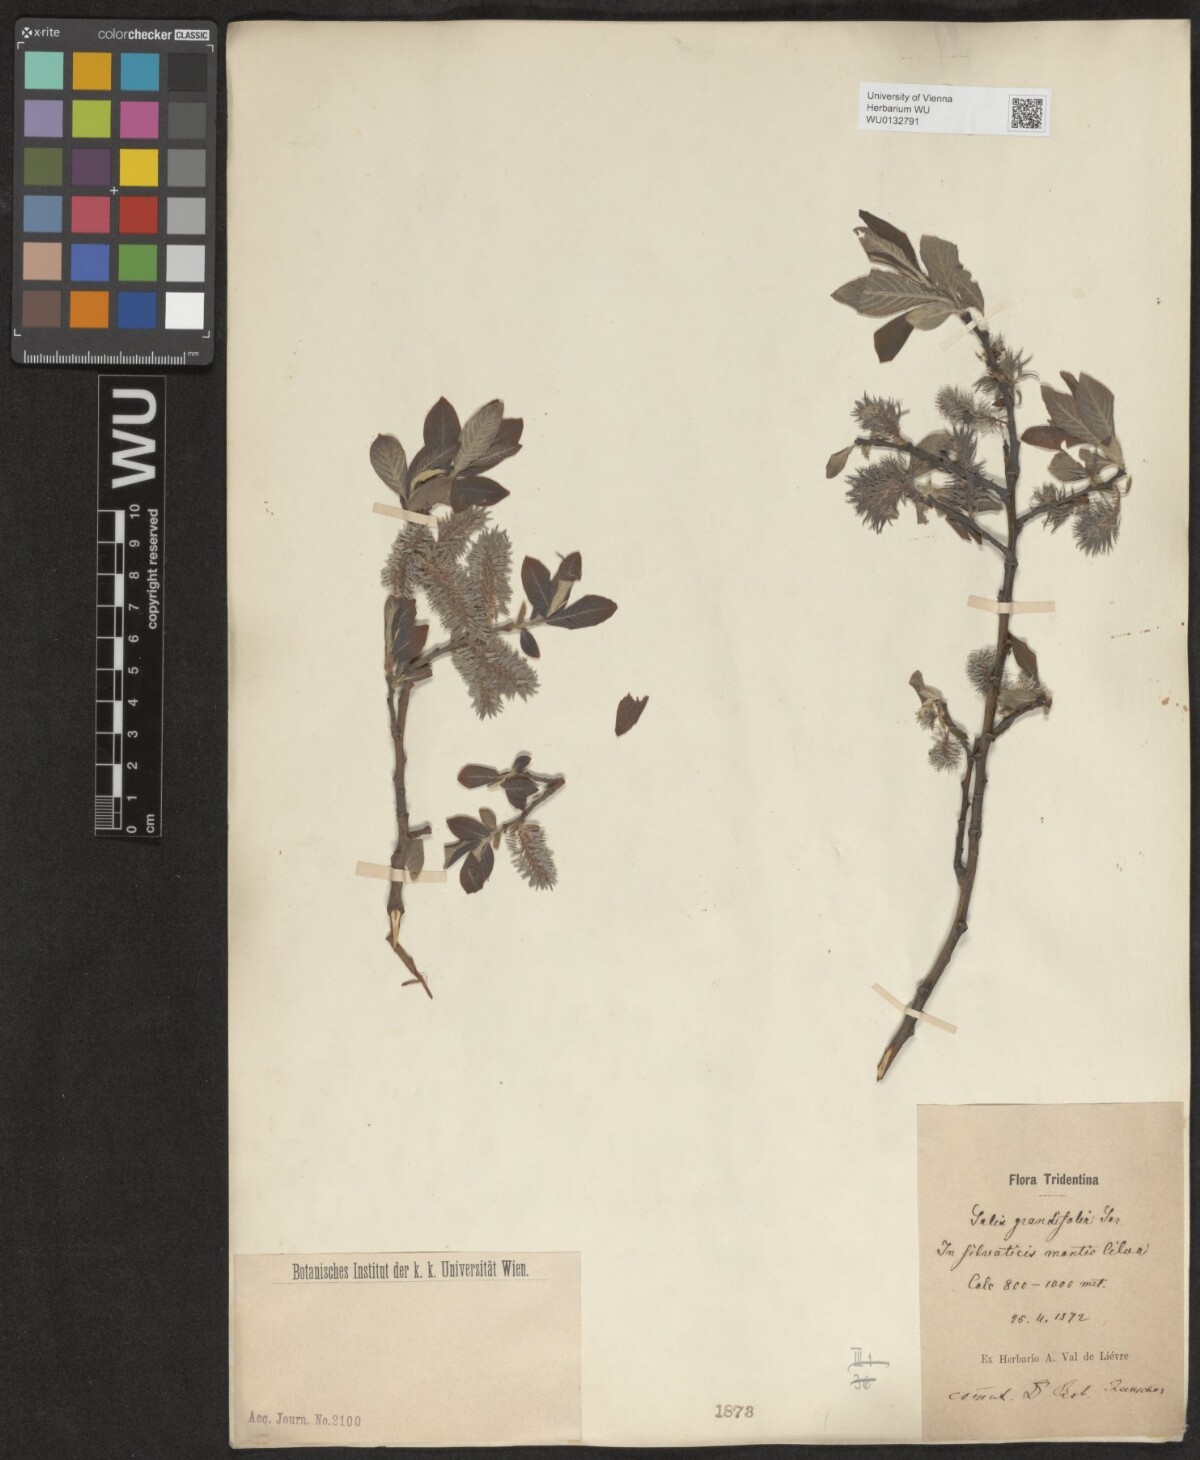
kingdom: Plantae
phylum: Tracheophyta
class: Magnoliopsida
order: Malpighiales
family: Salicaceae
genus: Salix
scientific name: Salix appendiculata
